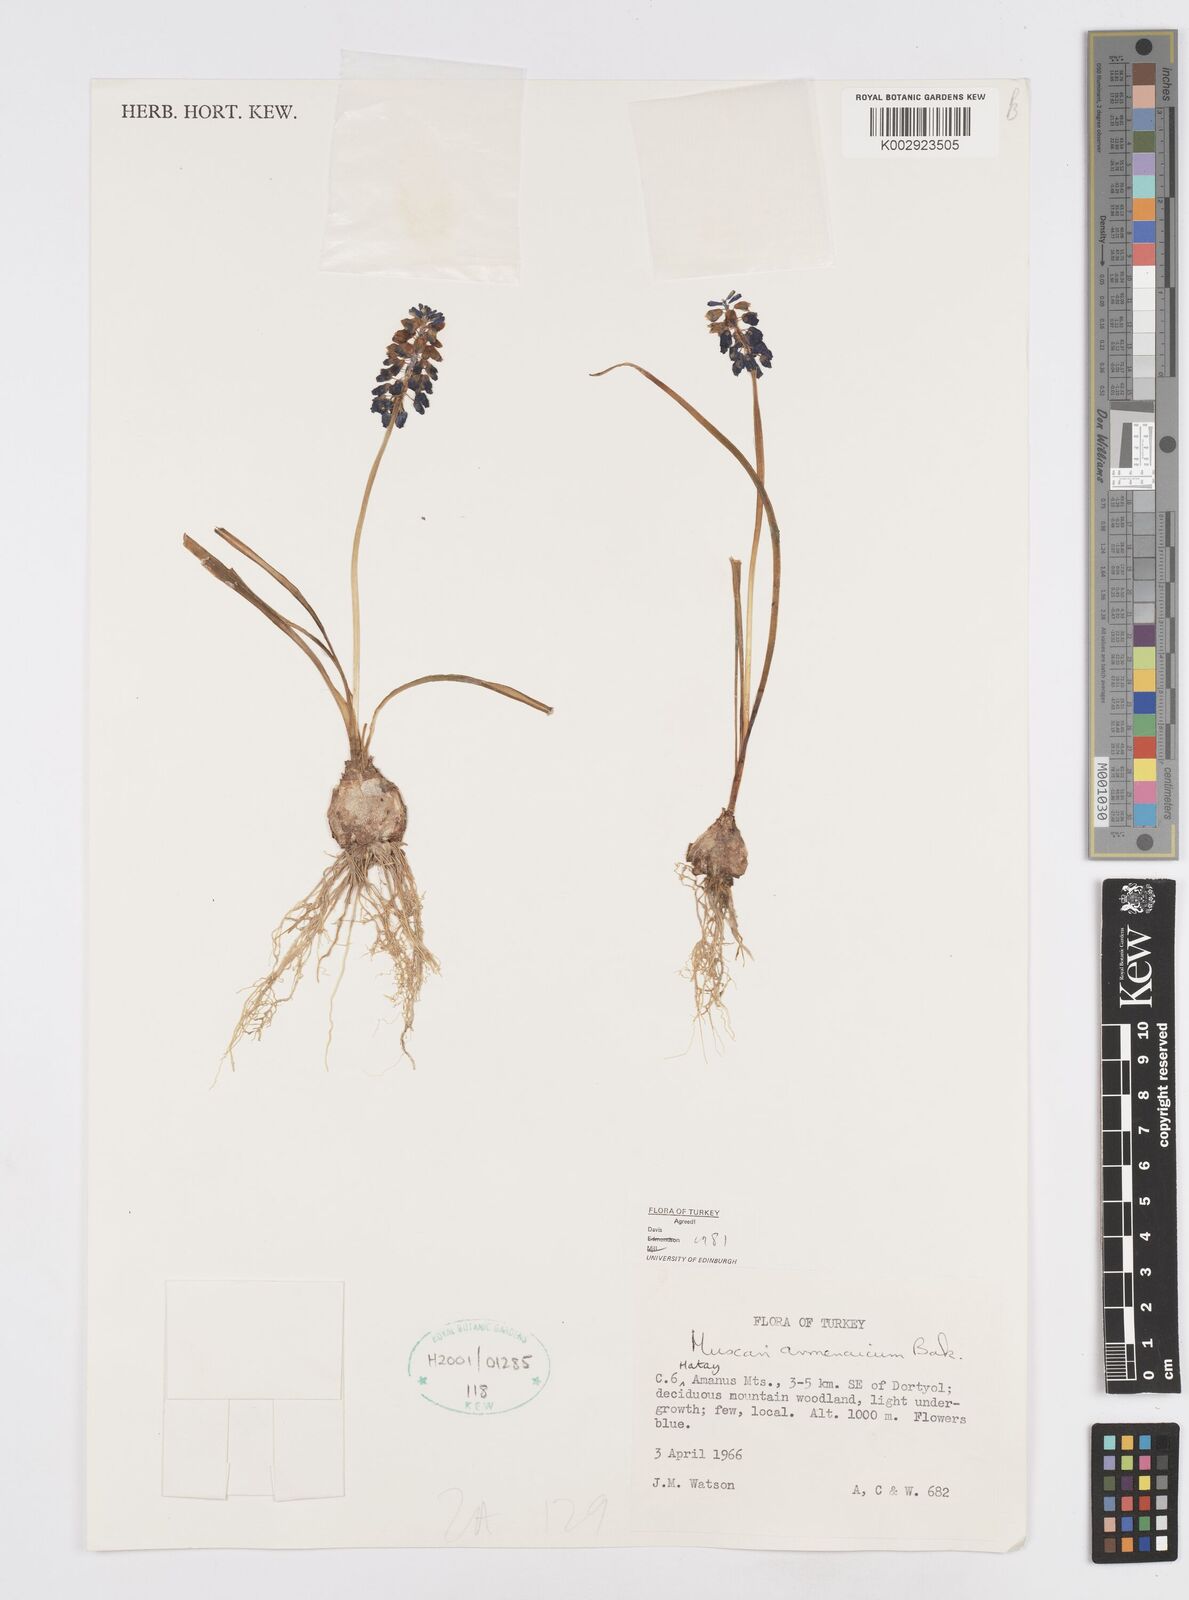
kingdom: Plantae
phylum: Tracheophyta
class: Liliopsida
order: Asparagales
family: Asparagaceae
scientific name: Asparagaceae
